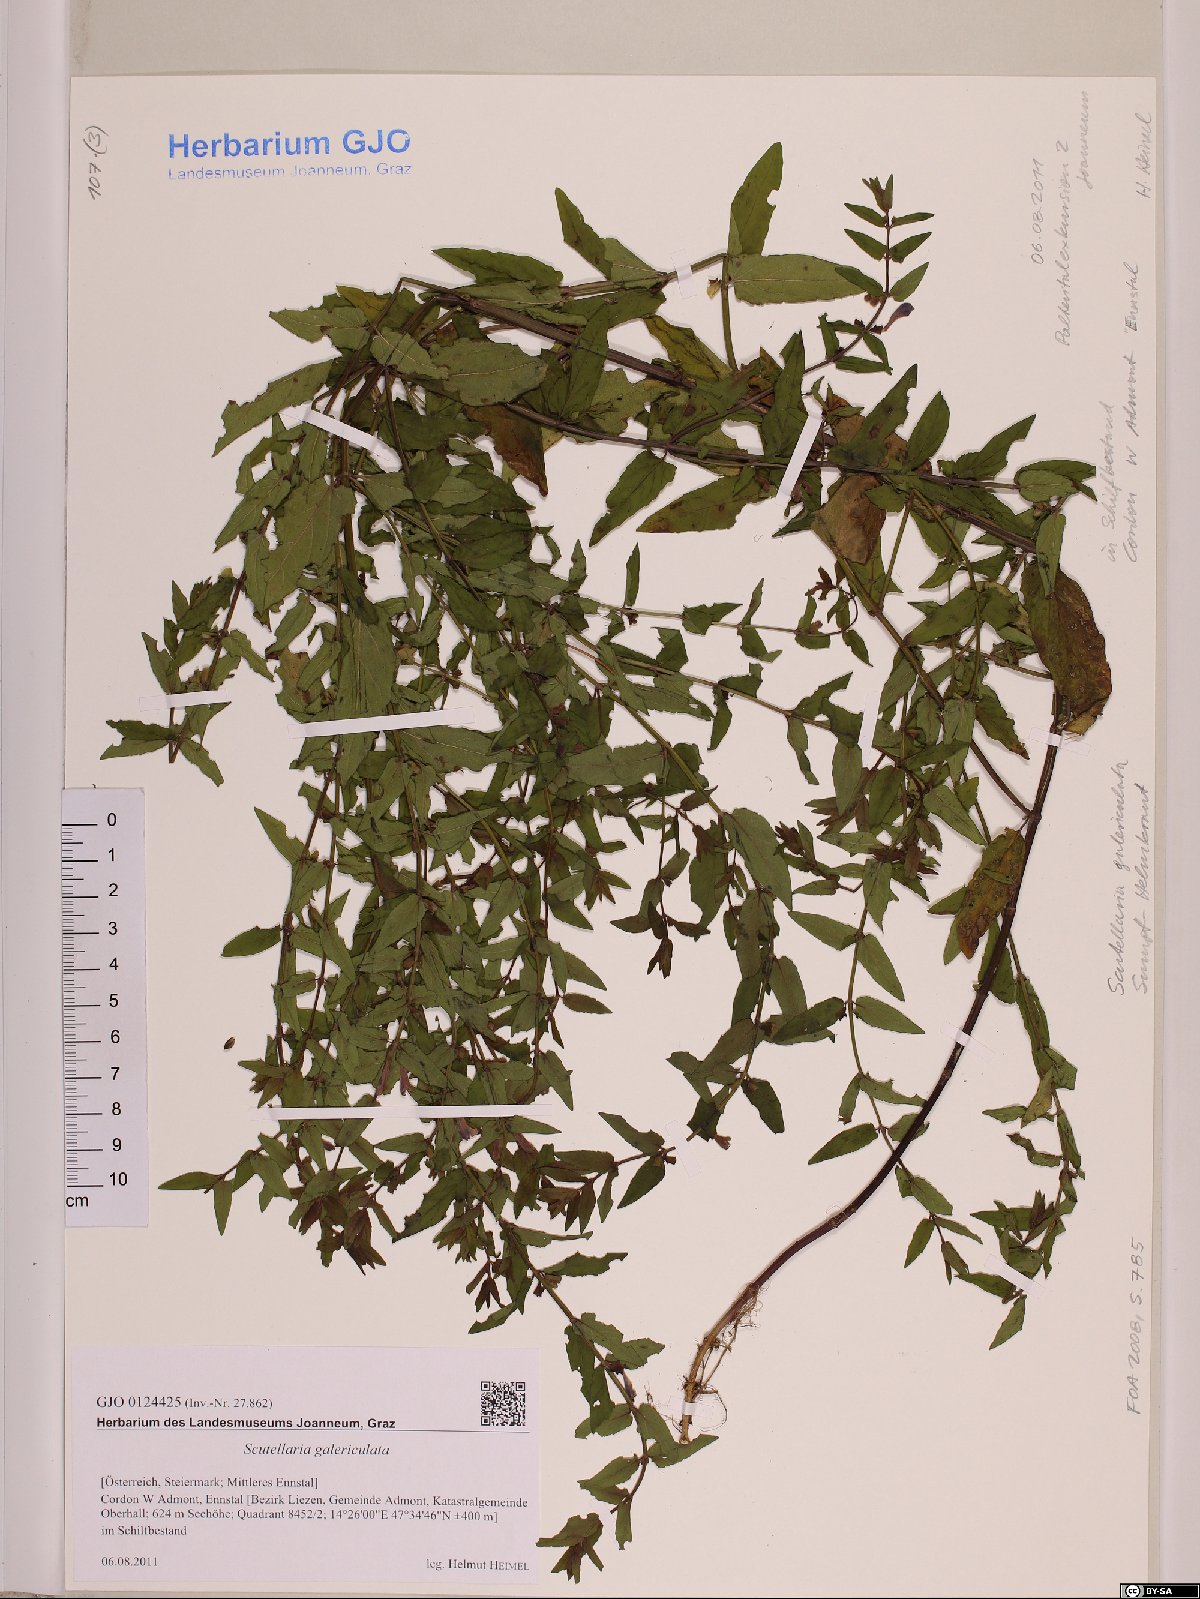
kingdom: Plantae
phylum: Tracheophyta
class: Magnoliopsida
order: Lamiales
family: Lamiaceae
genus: Scutellaria
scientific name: Scutellaria galericulata
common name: Skullcap
